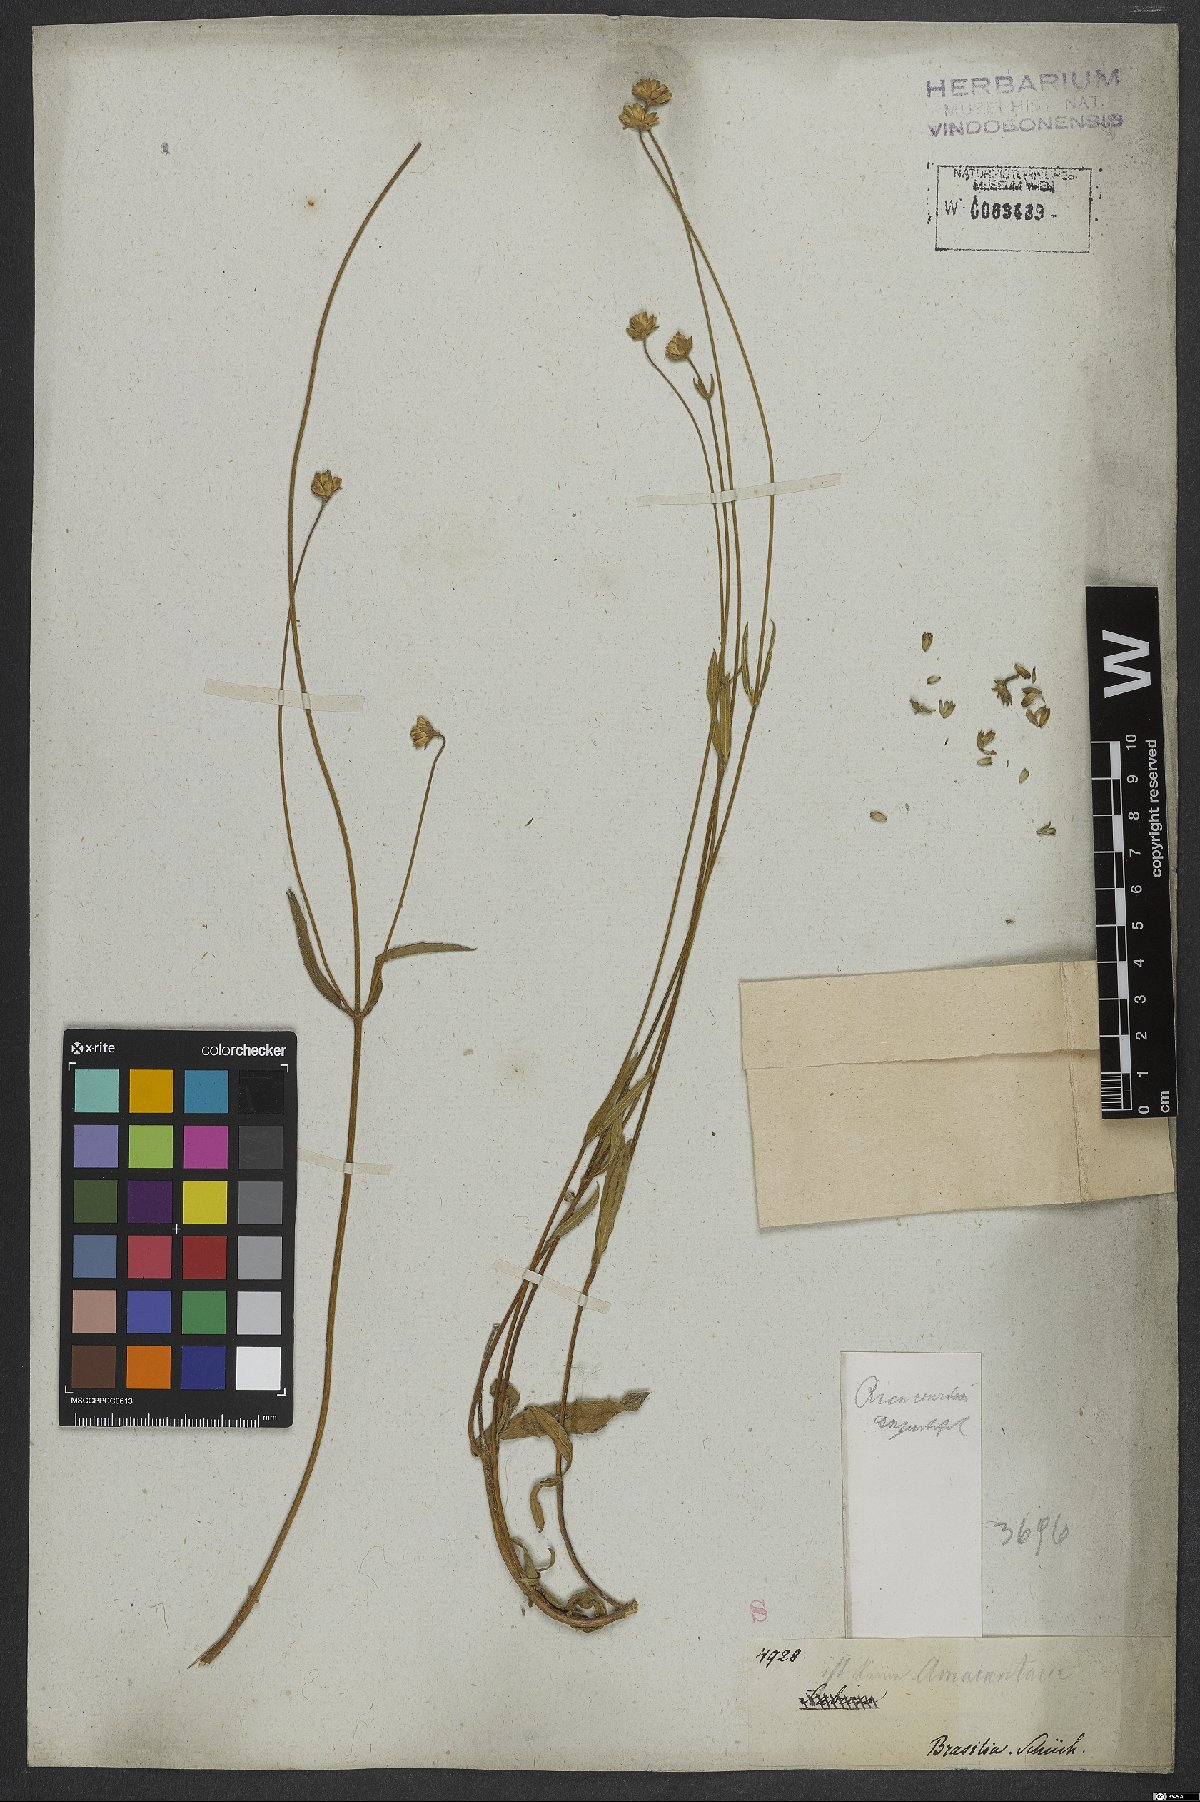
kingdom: Plantae
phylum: Tracheophyta
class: Magnoliopsida
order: Asterales
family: Asteraceae
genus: Riencourtia
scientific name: Riencourtia oblongifolia
